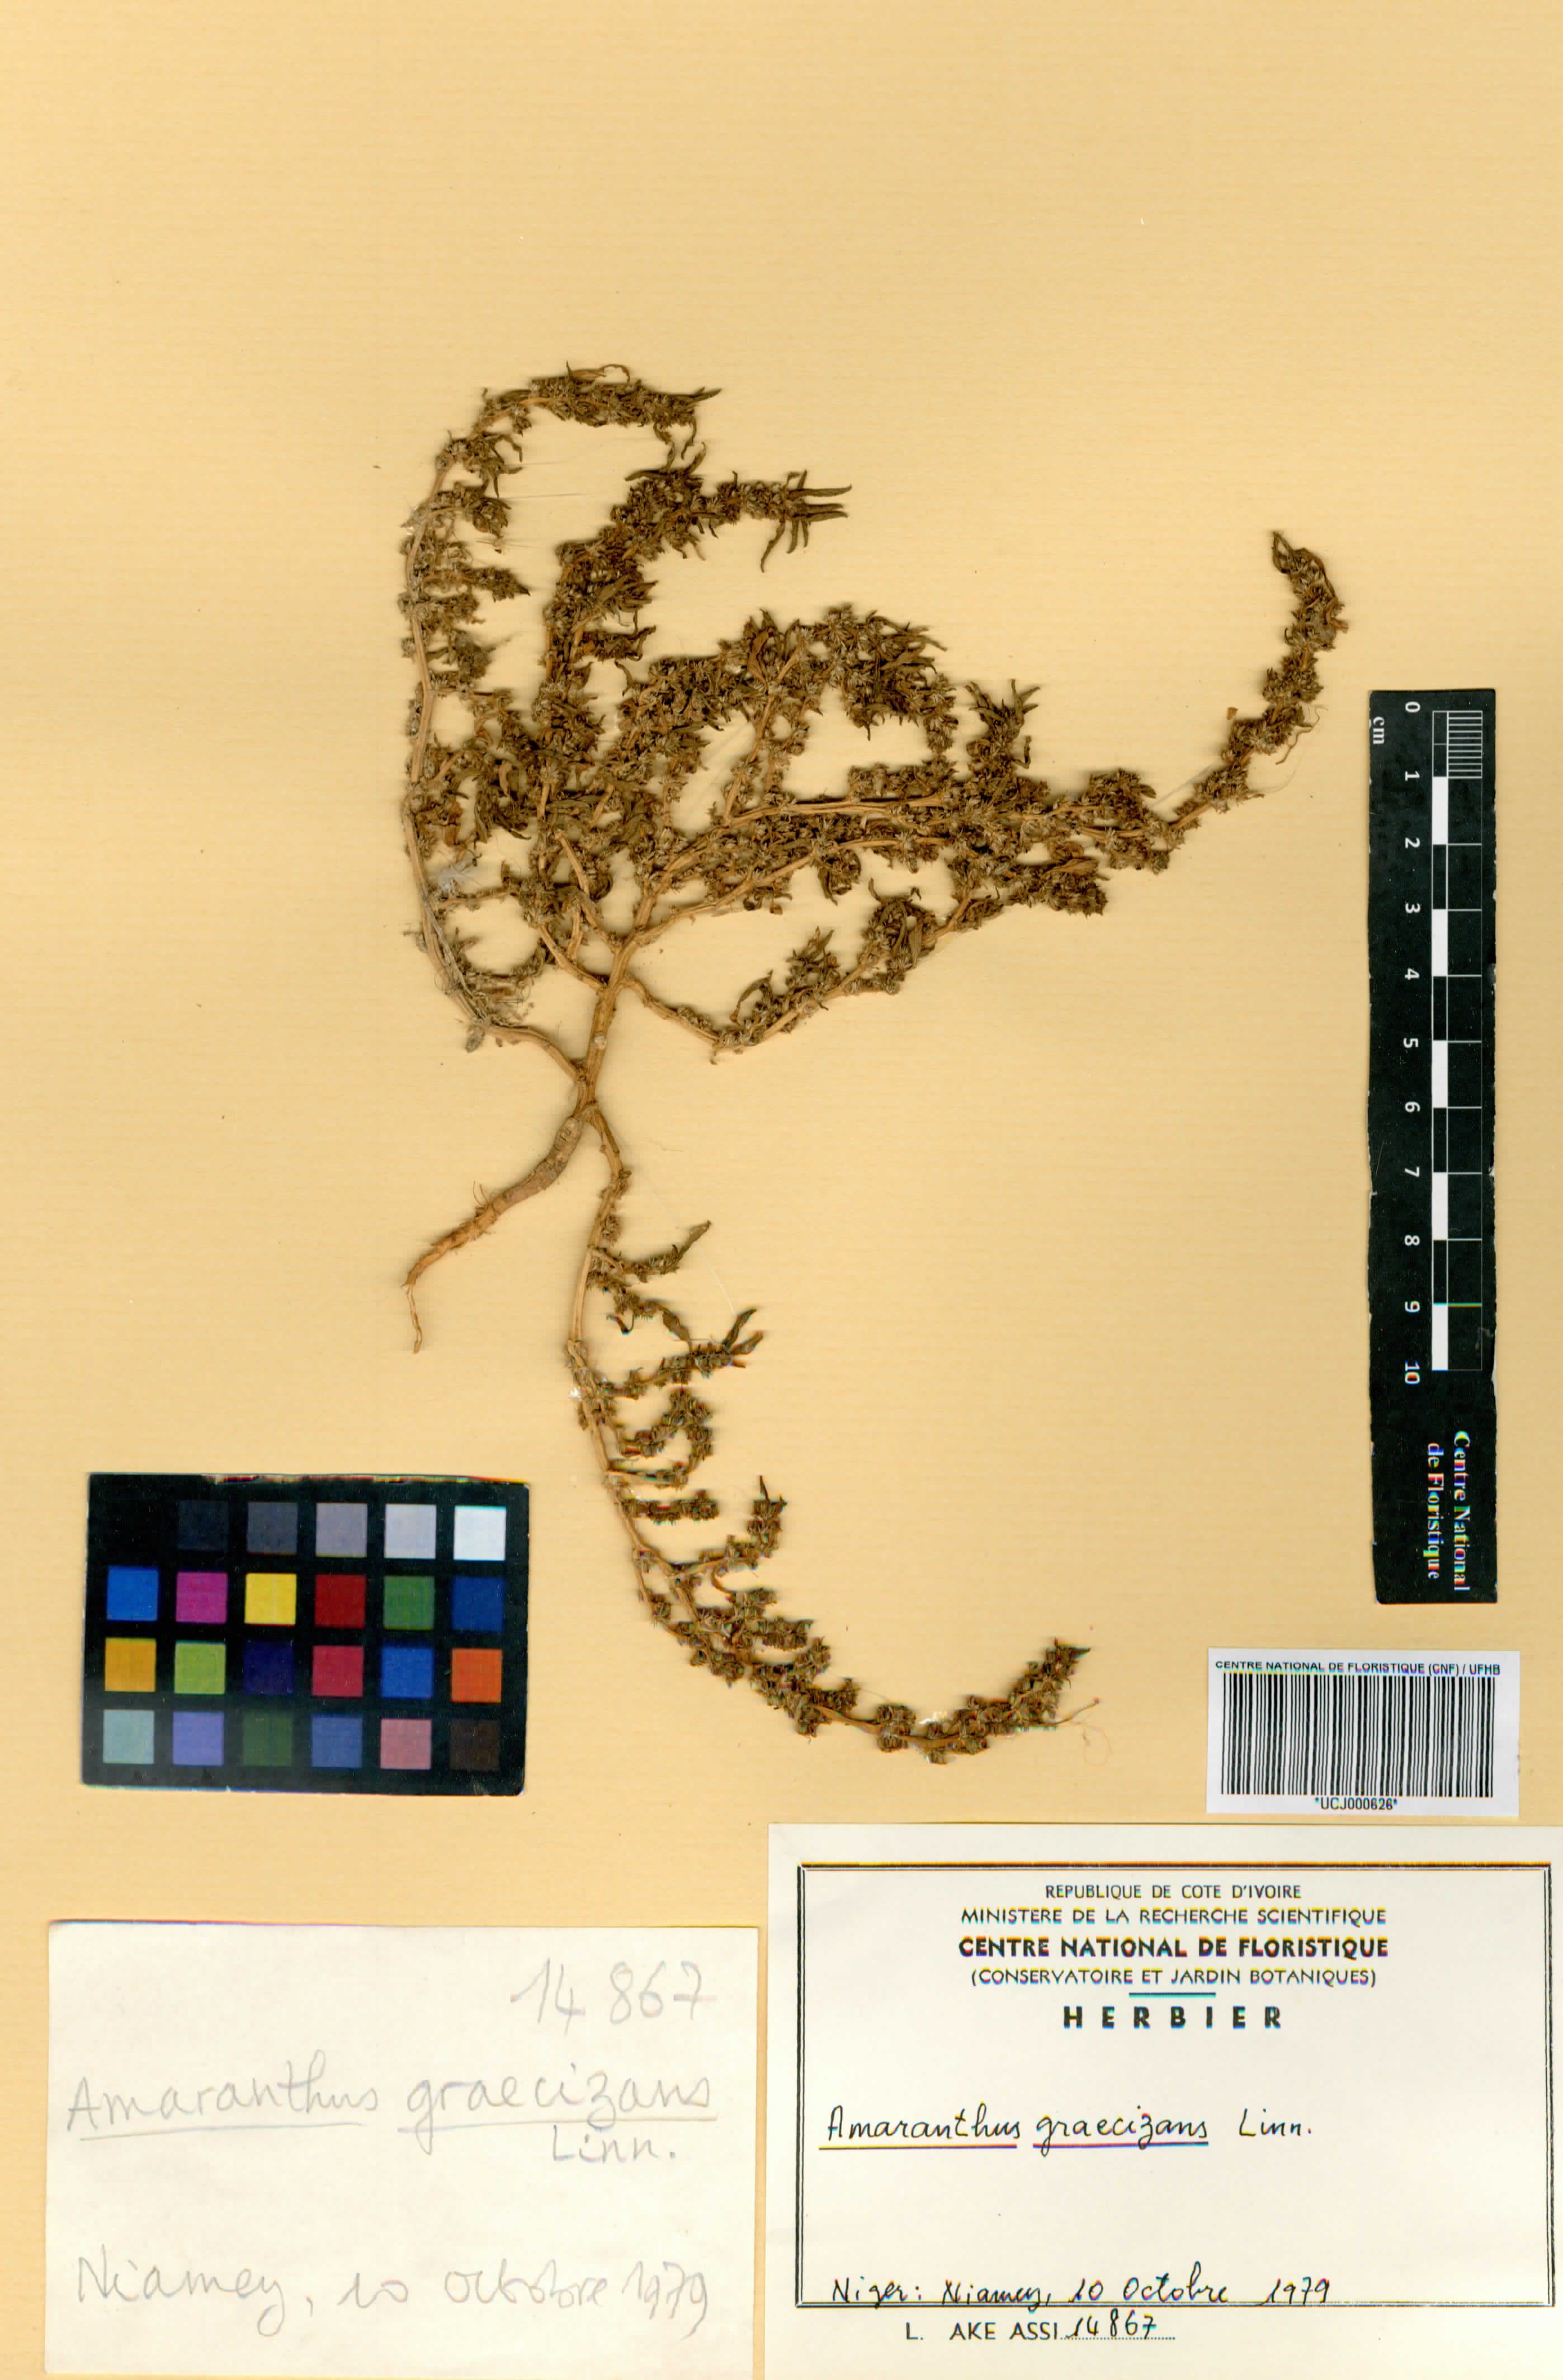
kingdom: Plantae
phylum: Tracheophyta
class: Magnoliopsida
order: Caryophyllales
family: Amaranthaceae
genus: Amaranthus
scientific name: Amaranthus graecizans
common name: Mediterranean amaranth
